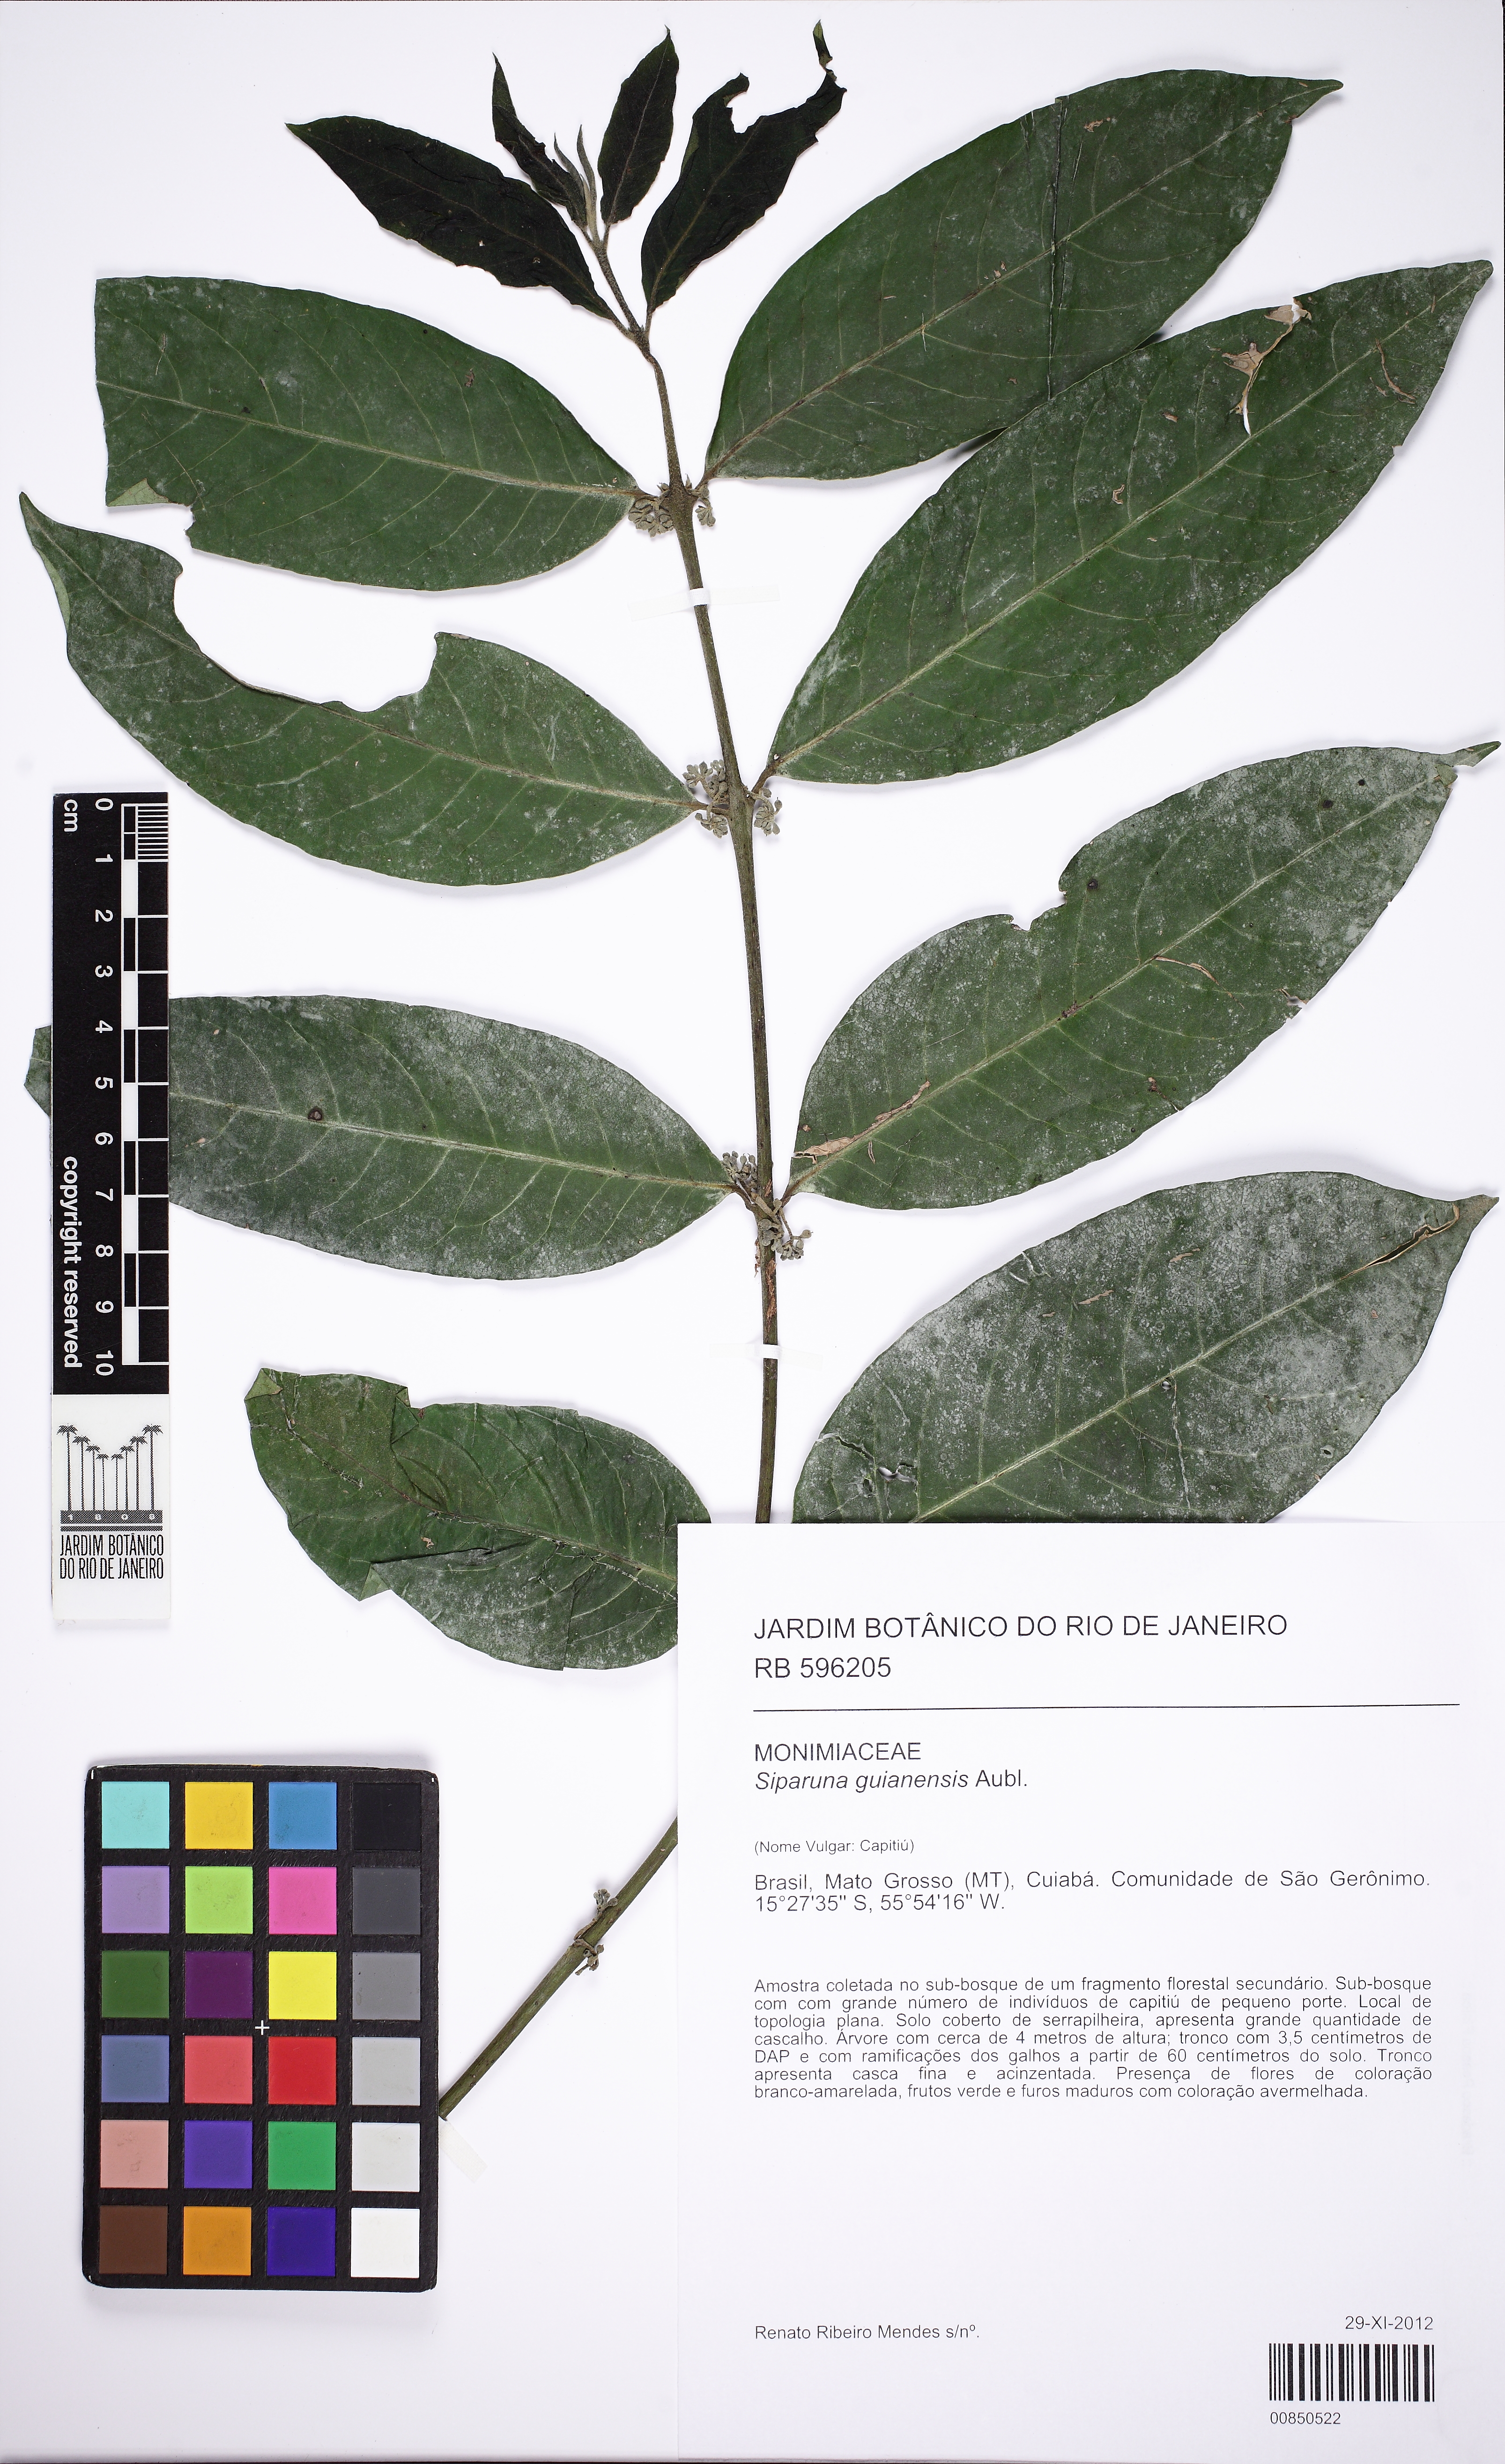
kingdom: Plantae
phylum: Tracheophyta
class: Magnoliopsida
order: Laurales
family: Siparunaceae
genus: Siparuna
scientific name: Siparuna guianensis
